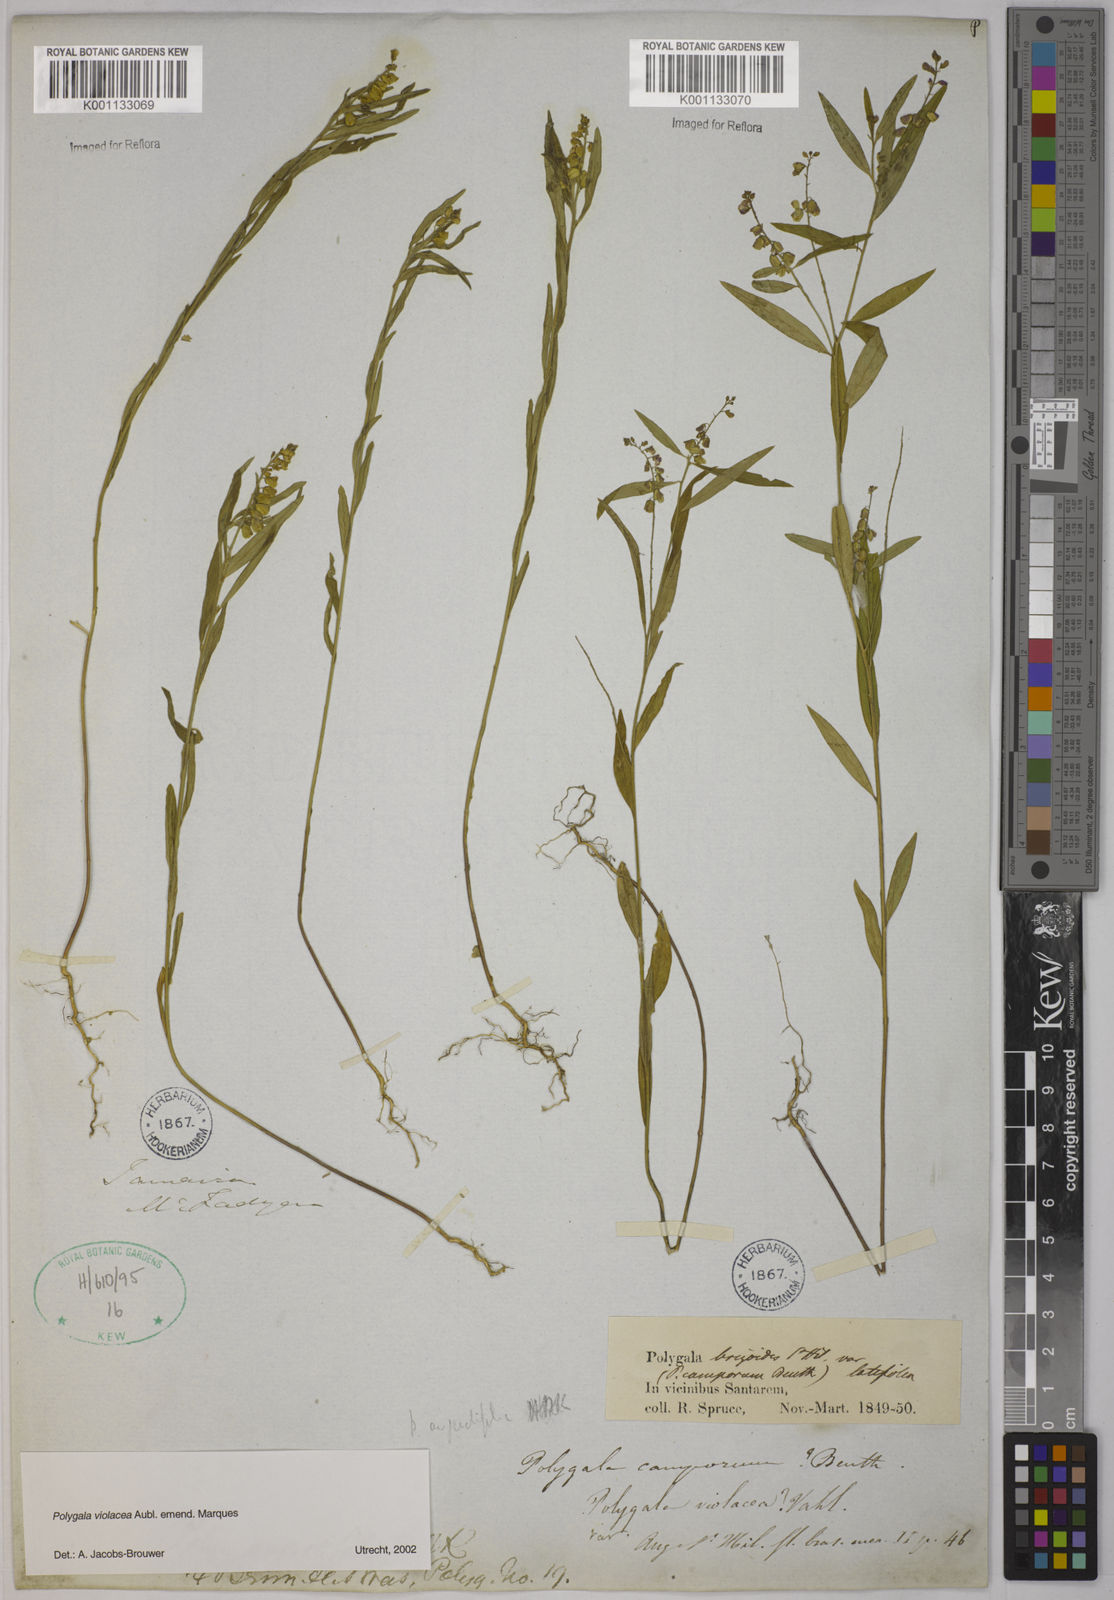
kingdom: Plantae
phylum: Tracheophyta
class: Magnoliopsida
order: Fabales
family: Polygalaceae
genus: Polygala
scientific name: Polygala
